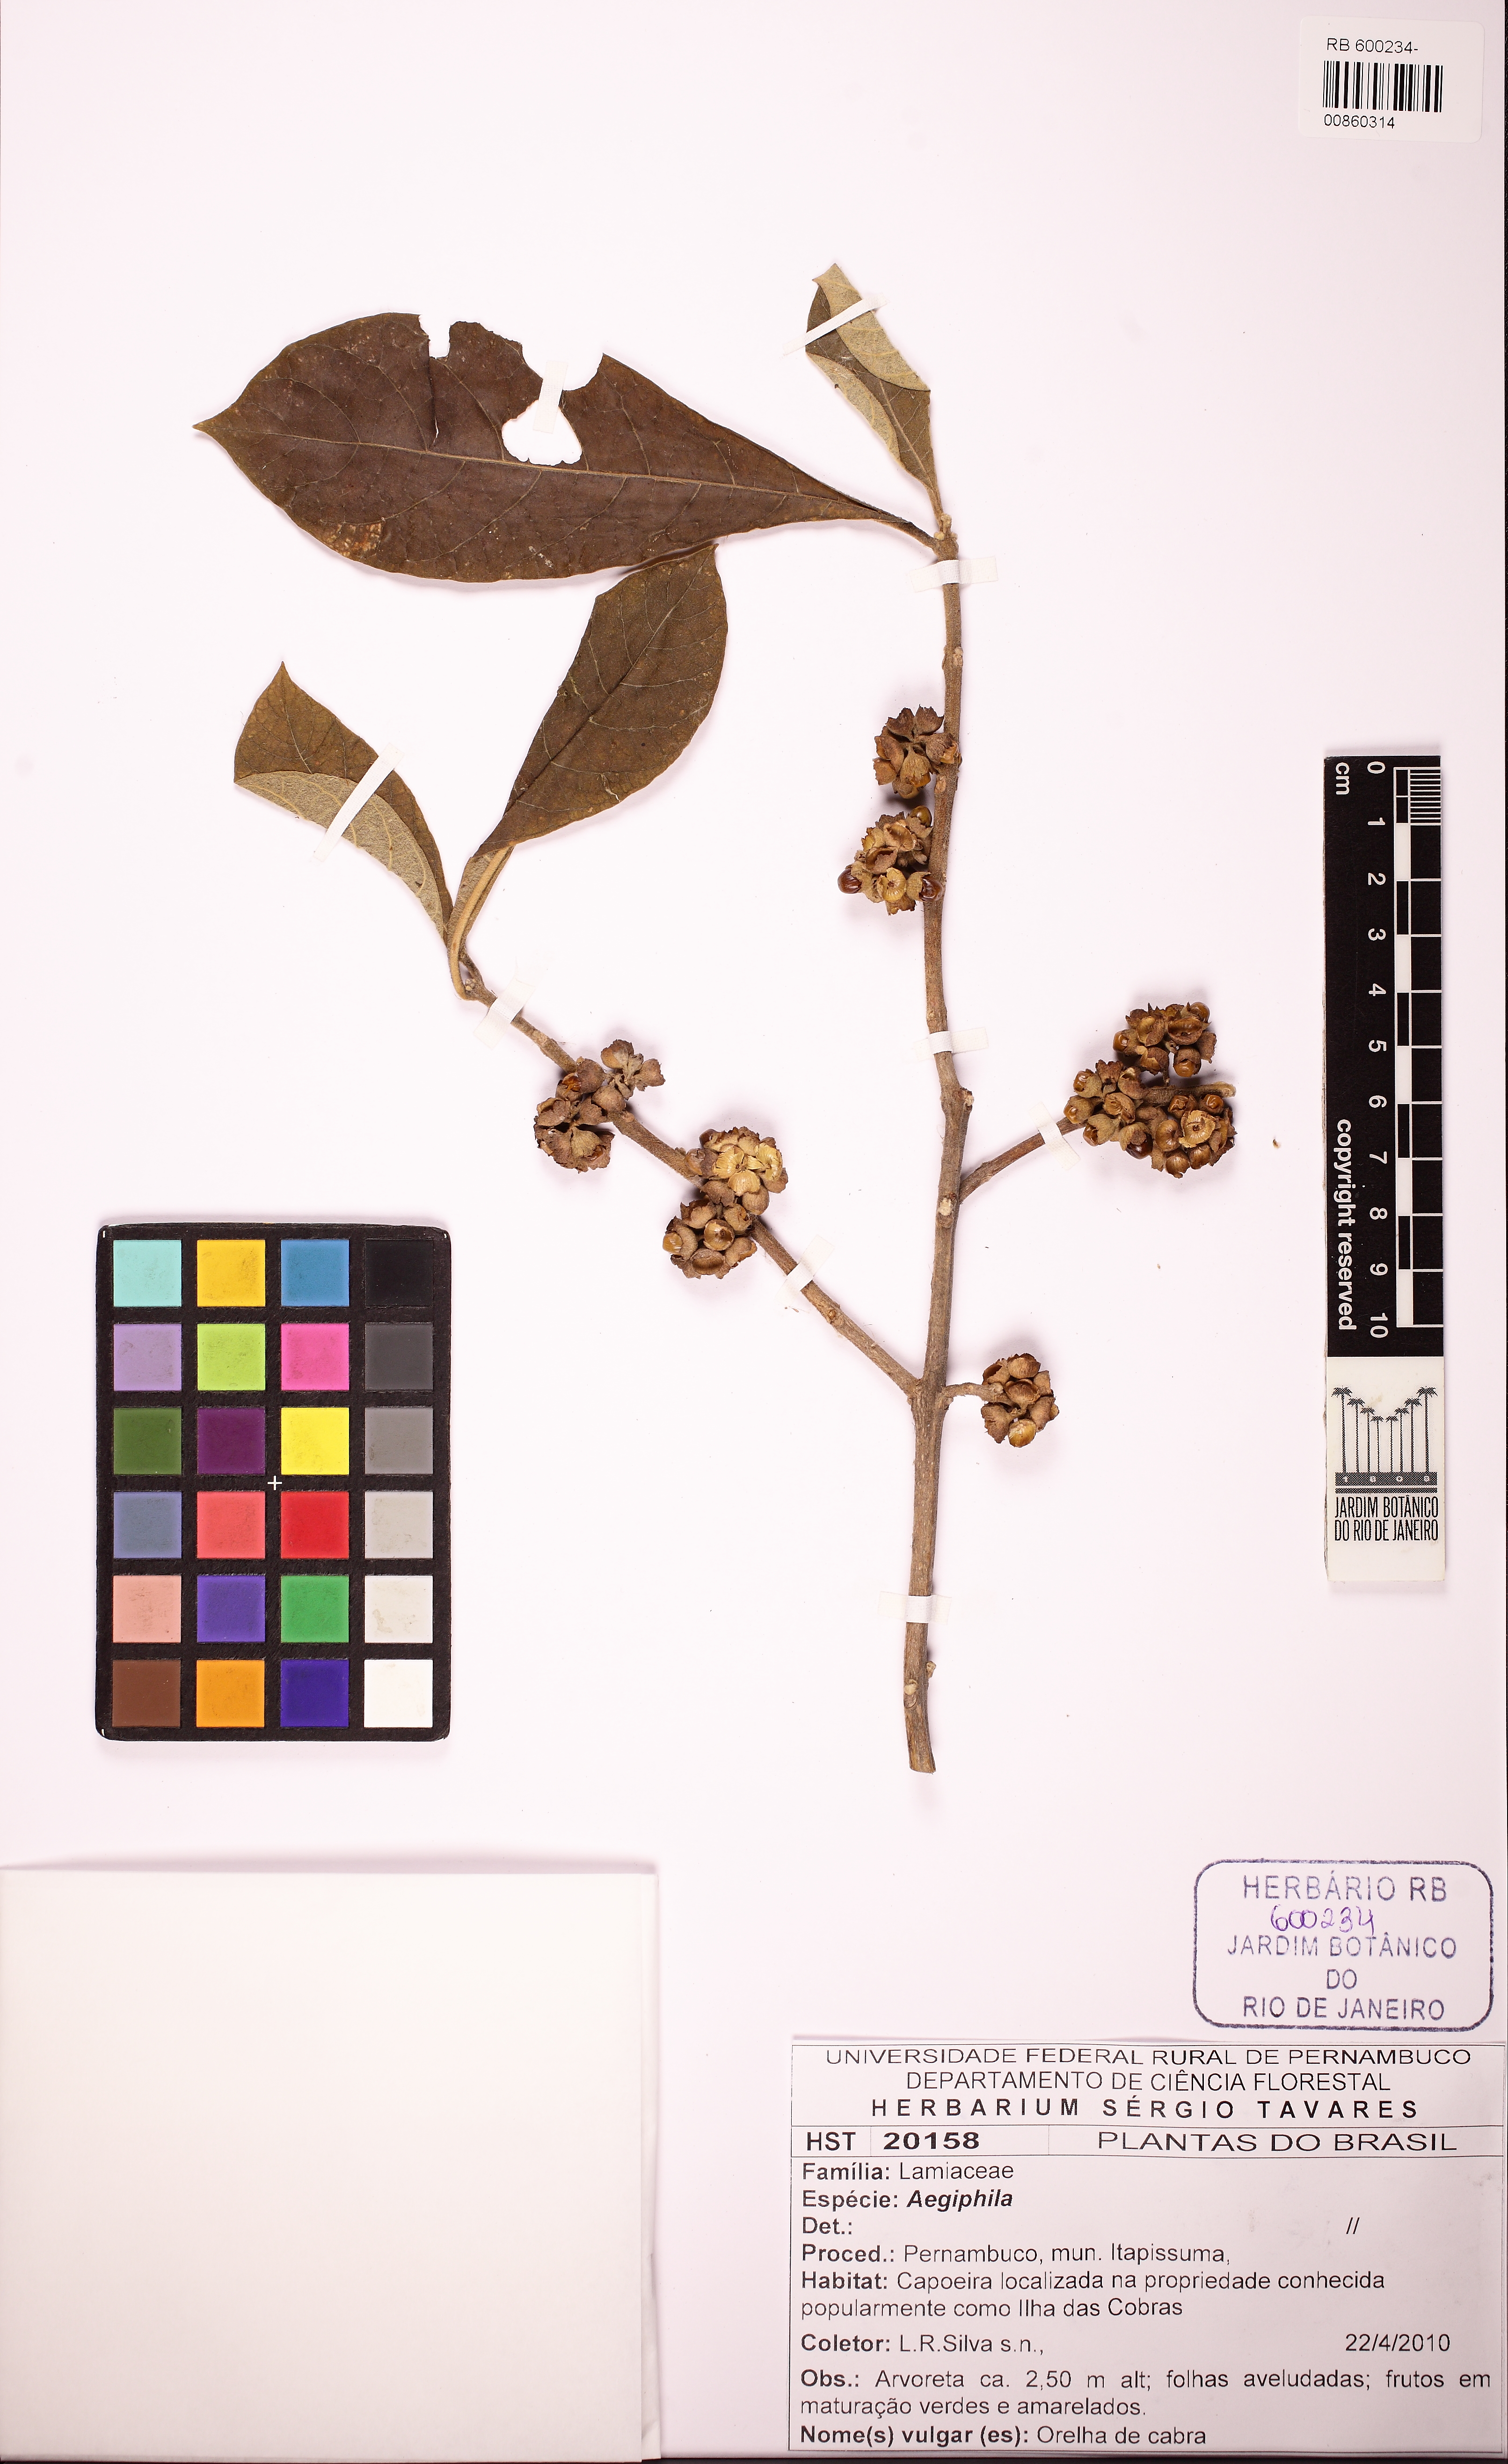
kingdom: Plantae
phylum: Tracheophyta
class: Magnoliopsida
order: Lamiales
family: Lamiaceae
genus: Aegiphila
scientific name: Aegiphila
